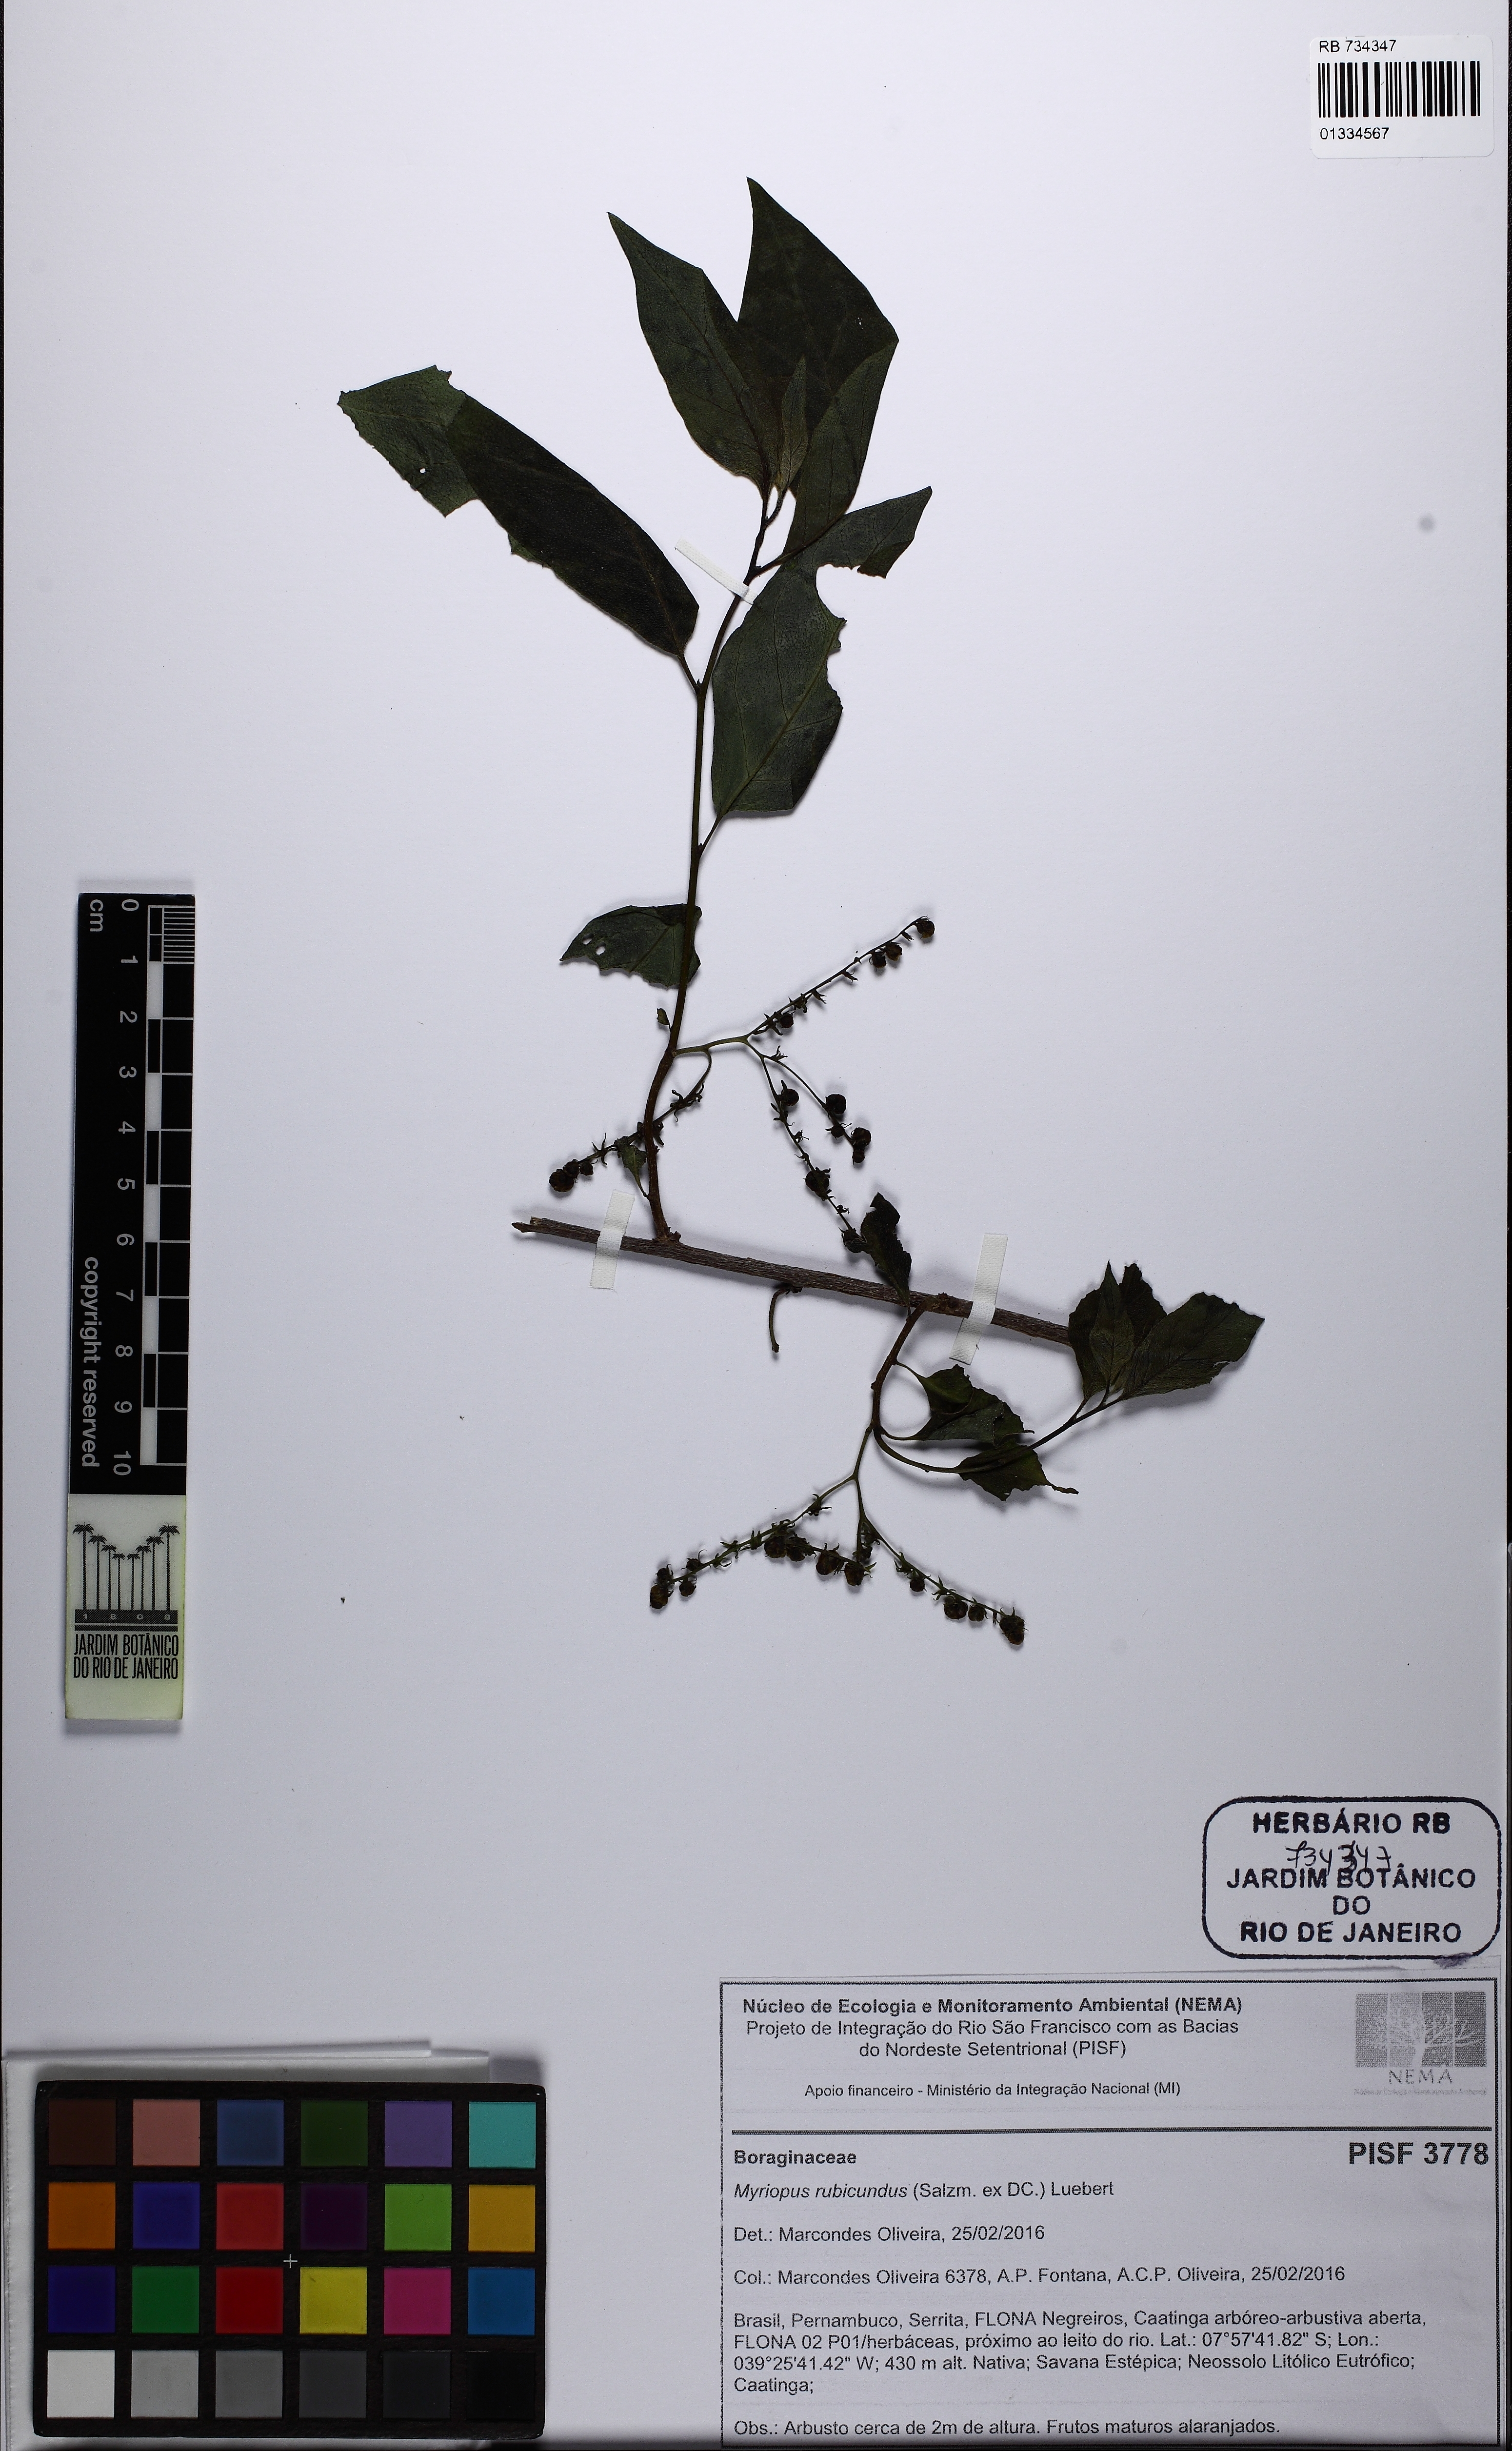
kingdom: Plantae
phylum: Tracheophyta
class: Magnoliopsida
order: Boraginales
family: Heliotropiaceae
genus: Myriopus
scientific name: Myriopus rubicundus
